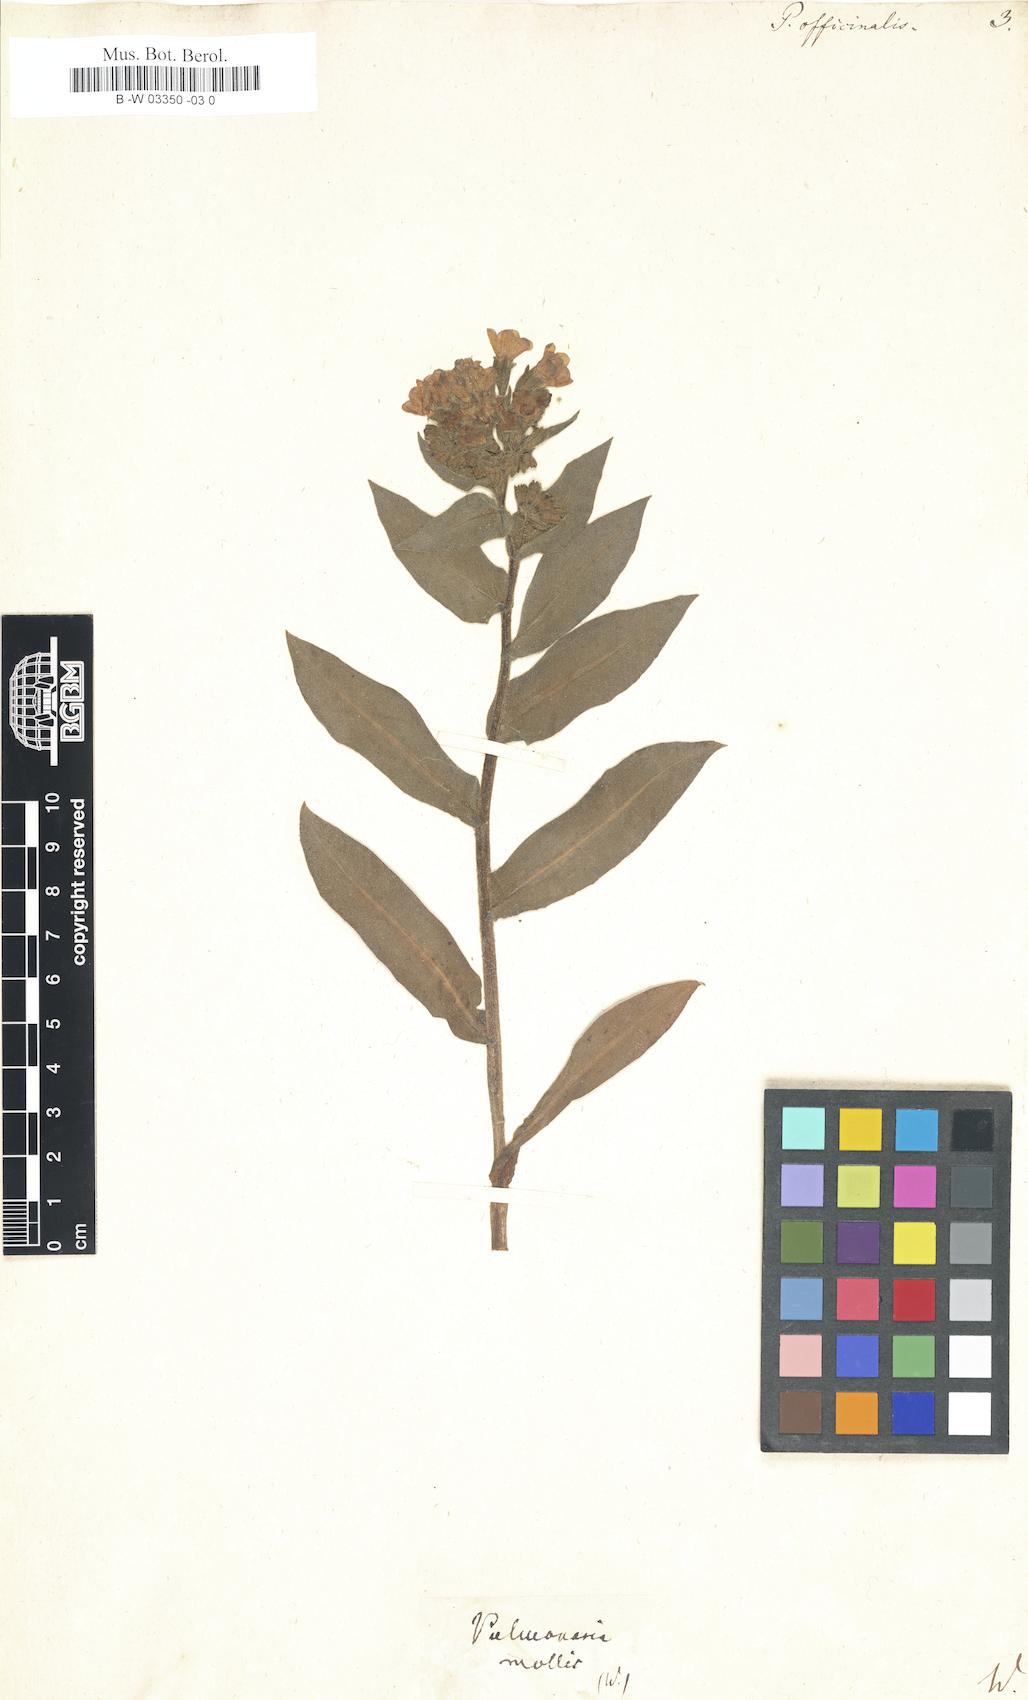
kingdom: Plantae
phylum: Tracheophyta
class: Magnoliopsida
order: Boraginales
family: Boraginaceae
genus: Pulmonaria
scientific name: Pulmonaria officinalis
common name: Lungwort
